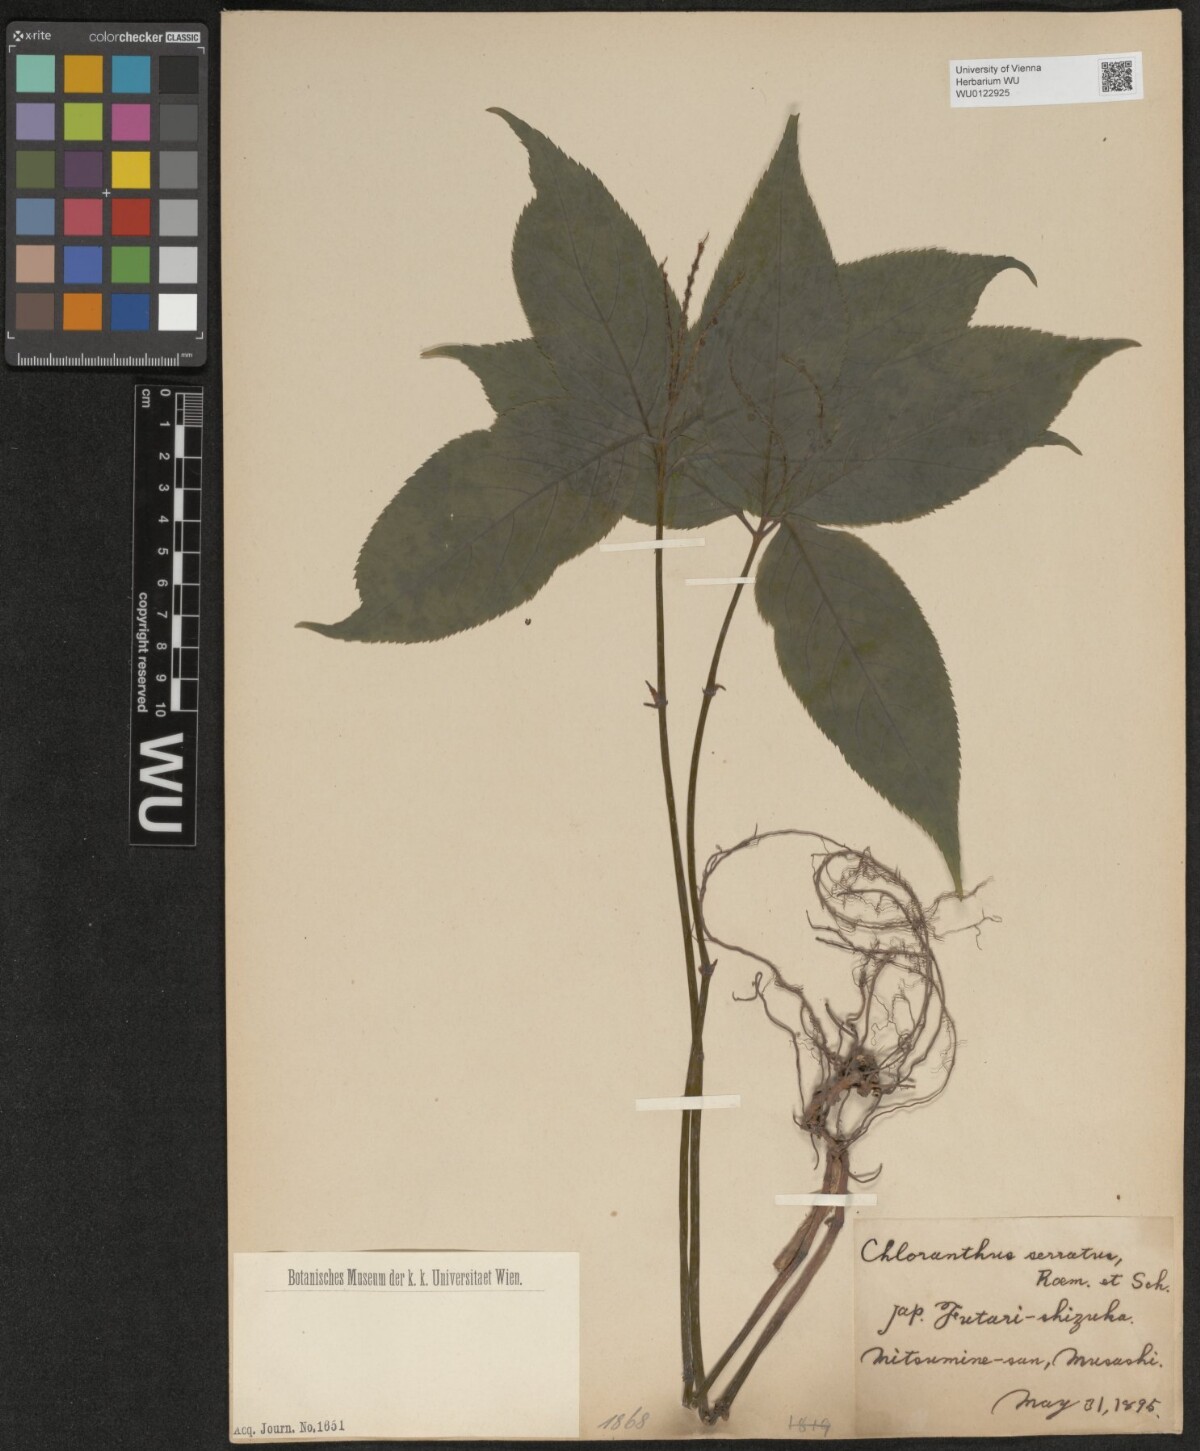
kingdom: Plantae
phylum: Tracheophyta
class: Magnoliopsida
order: Chloranthales
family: Chloranthaceae
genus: Chloranthus
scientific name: Chloranthus serratus
